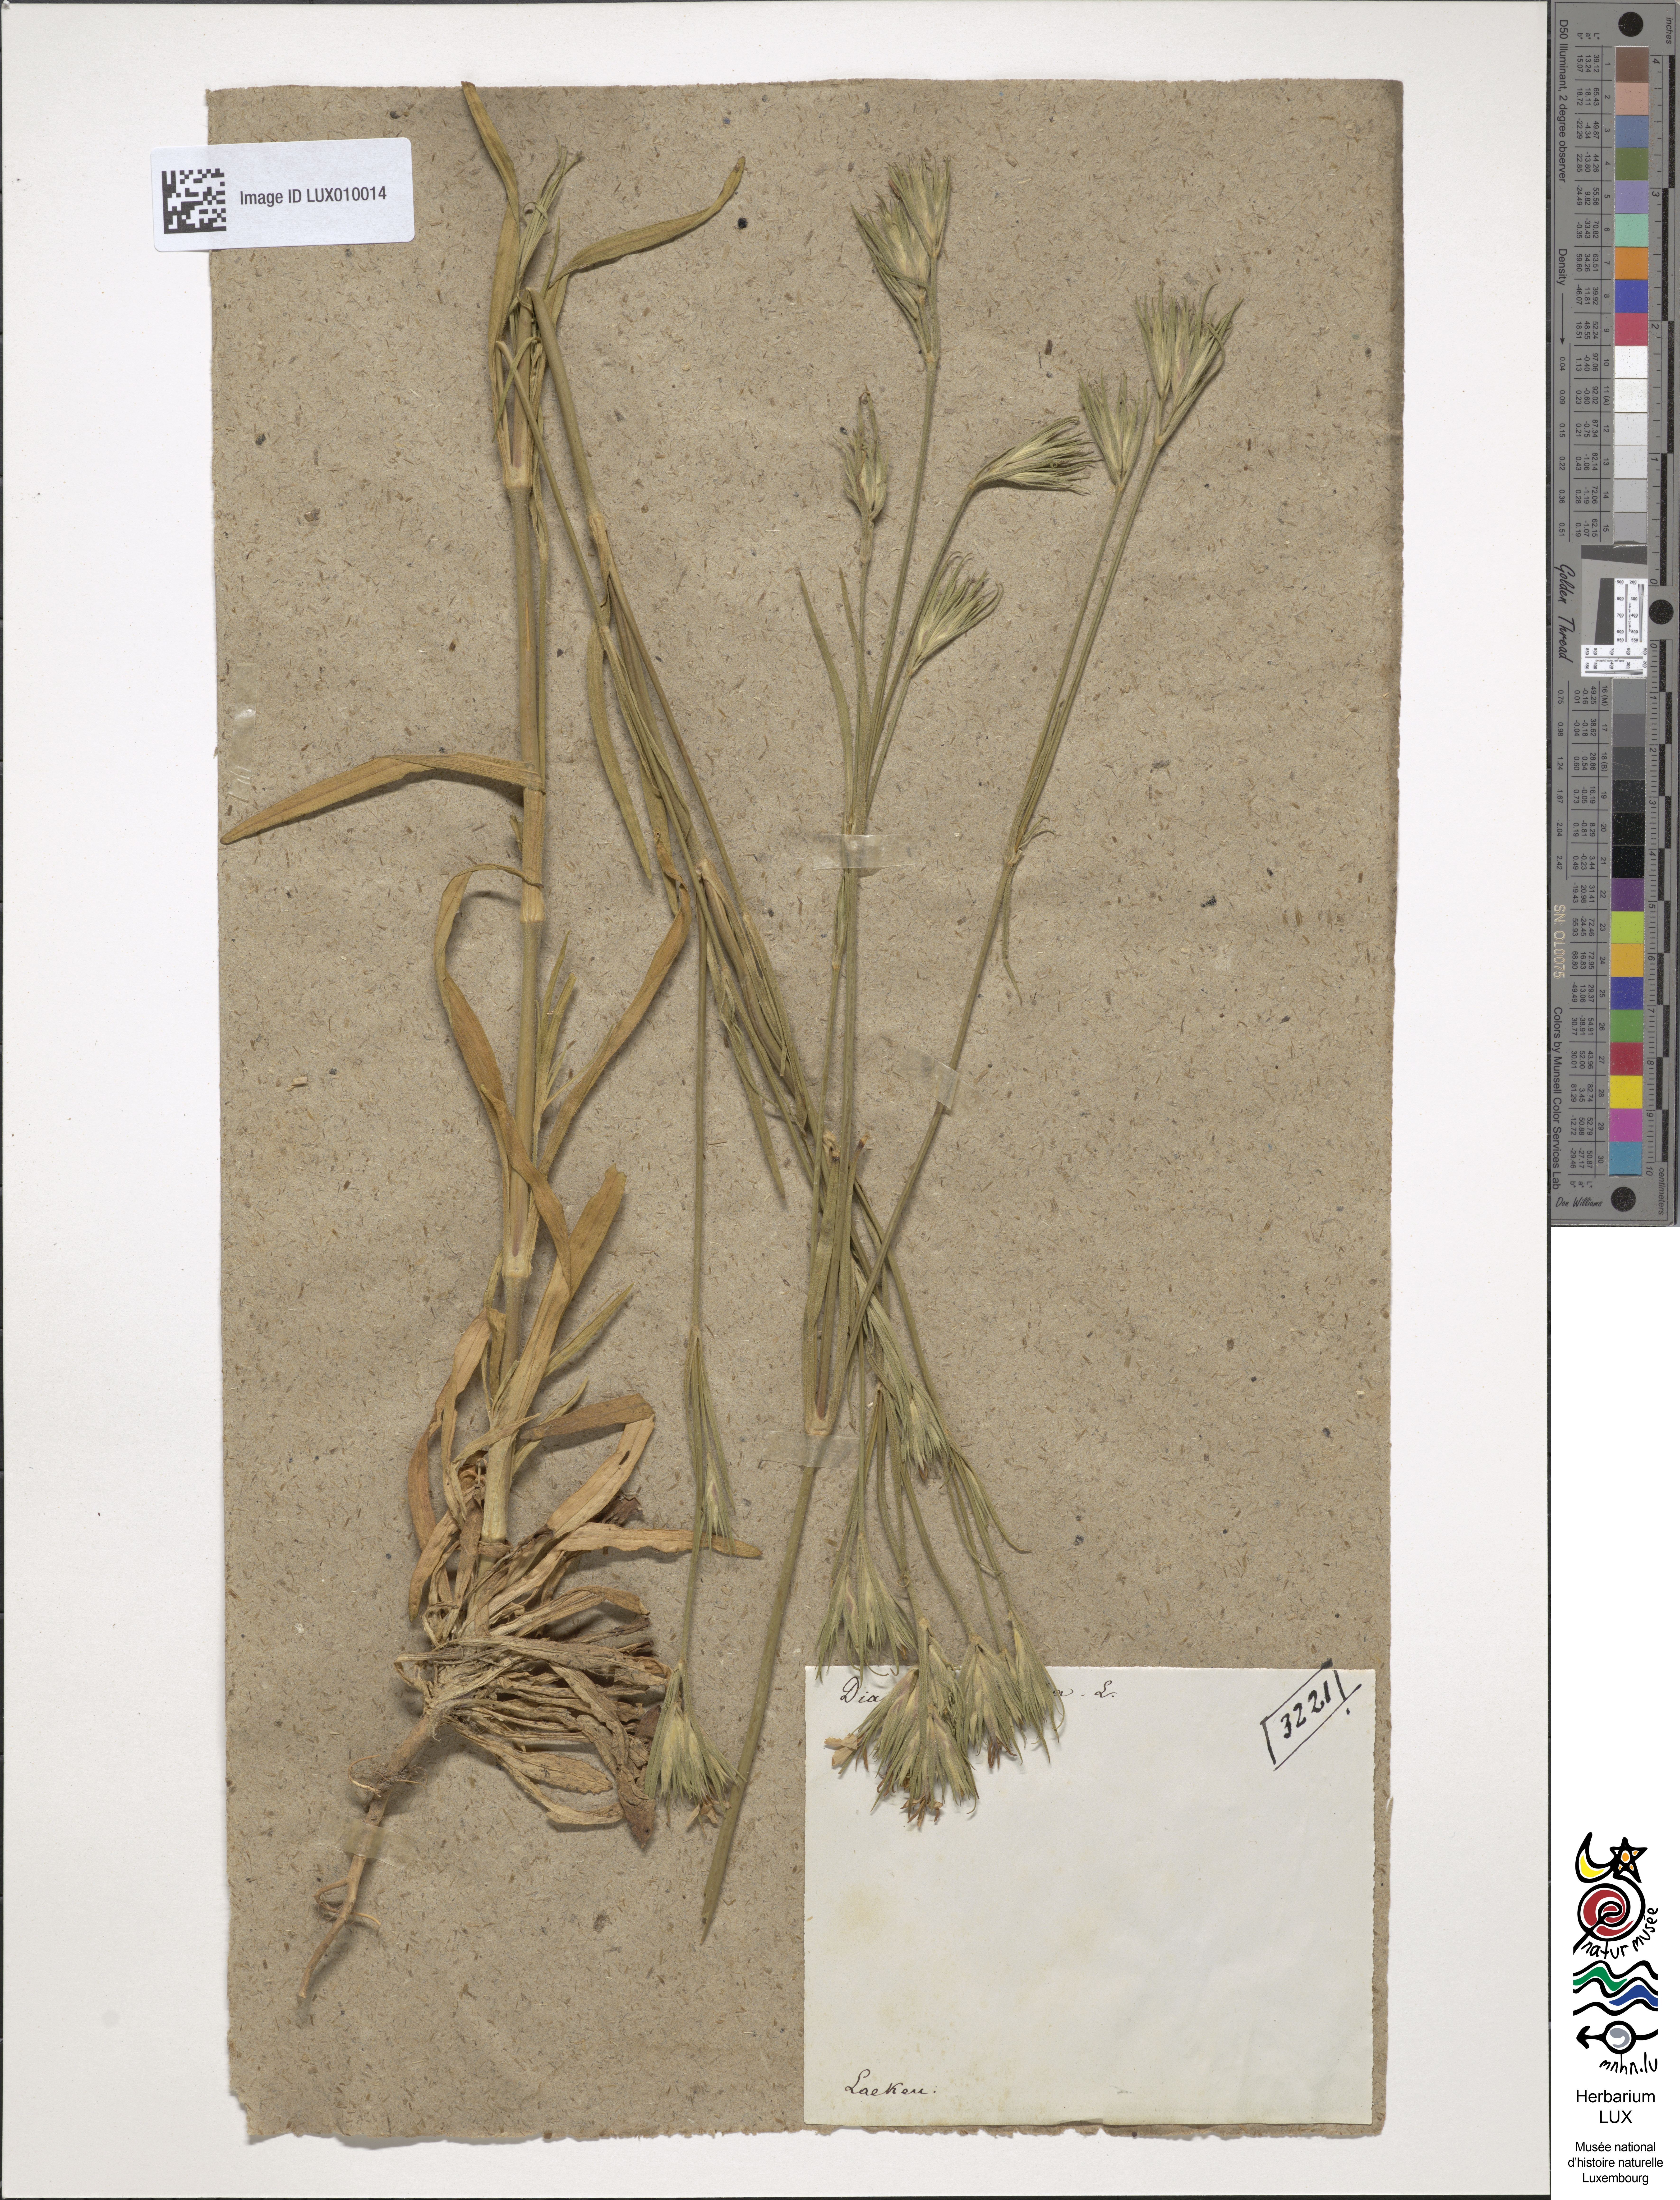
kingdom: Plantae
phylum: Tracheophyta
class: Magnoliopsida
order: Caryophyllales
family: Caryophyllaceae
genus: Dianthus
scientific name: Dianthus armeria
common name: Deptford pink
